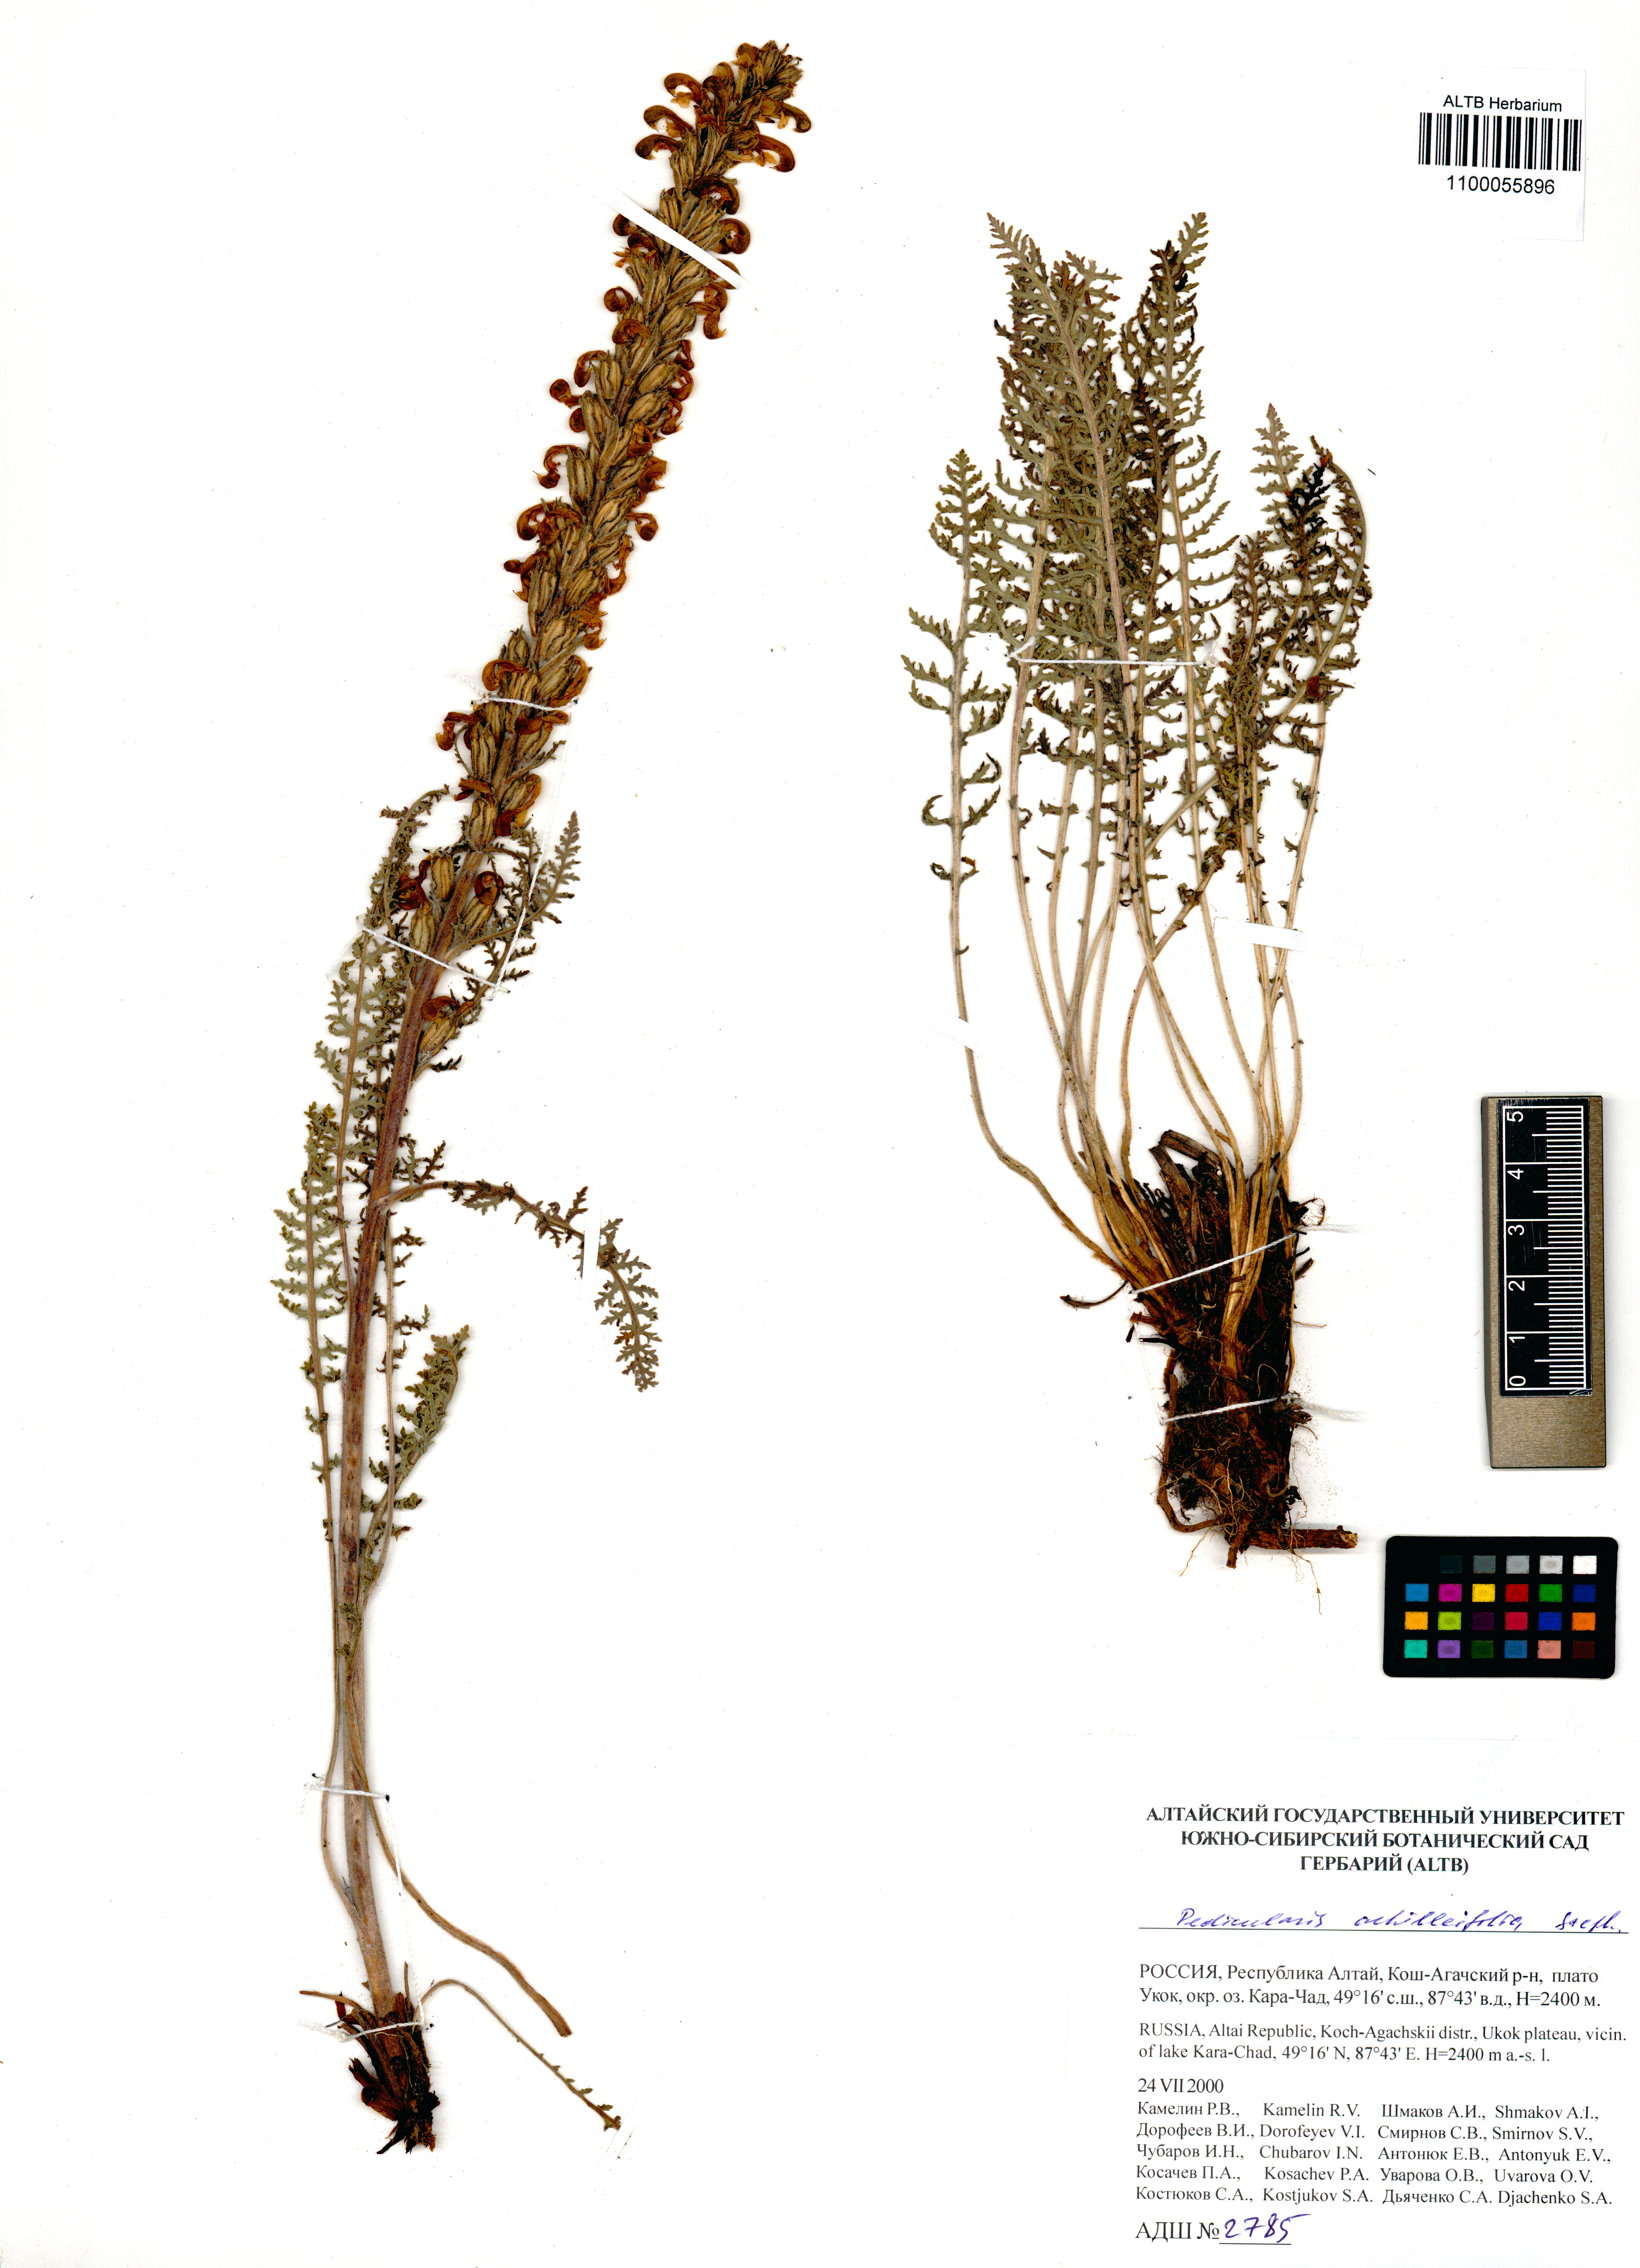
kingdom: Plantae
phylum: Tracheophyta
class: Magnoliopsida
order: Lamiales
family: Orobanchaceae
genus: Pedicularis
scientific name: Pedicularis achilleifolia
